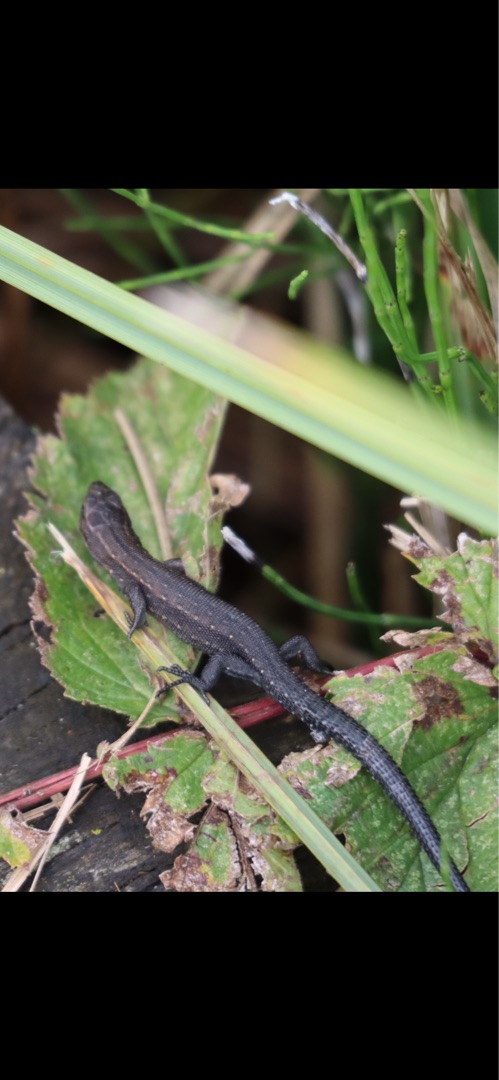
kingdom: Animalia
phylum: Chordata
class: Squamata
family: Lacertidae
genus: Zootoca
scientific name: Zootoca vivipara
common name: Skovfirben
